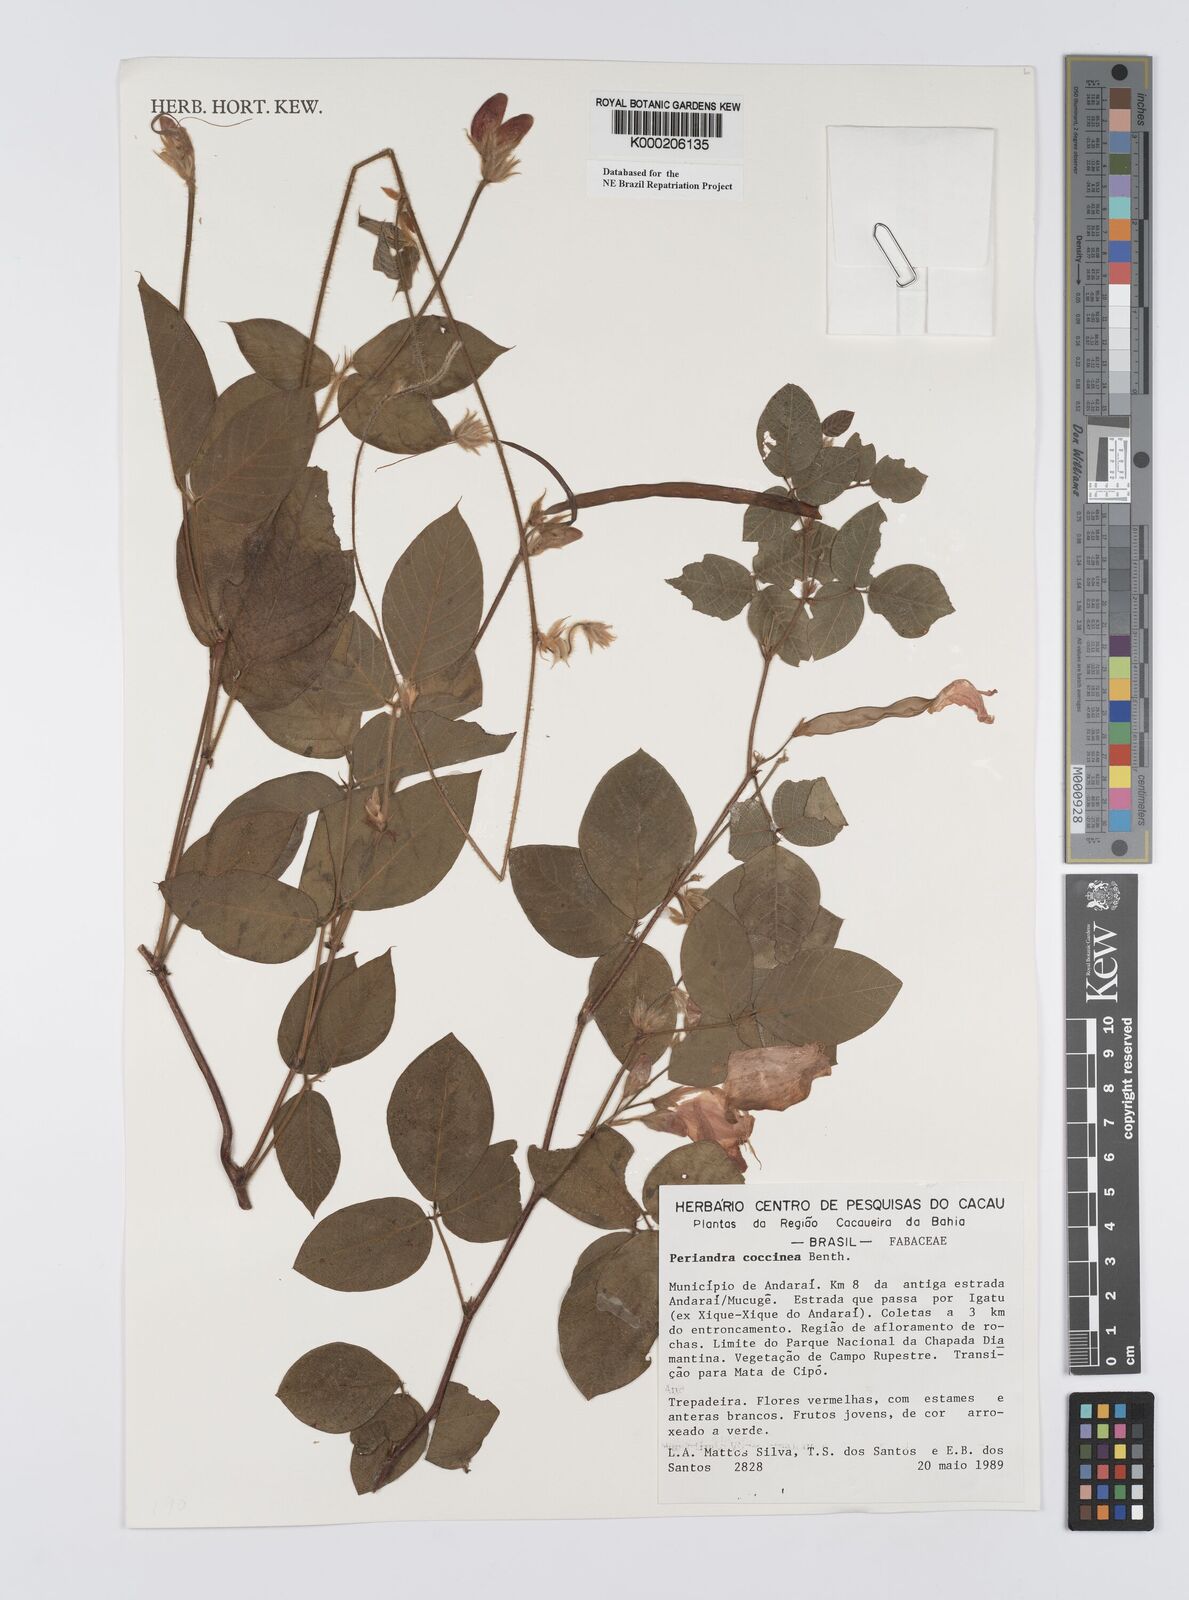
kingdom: Plantae
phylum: Tracheophyta
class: Magnoliopsida
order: Fabales
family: Fabaceae
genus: Periandra
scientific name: Periandra coccinea
